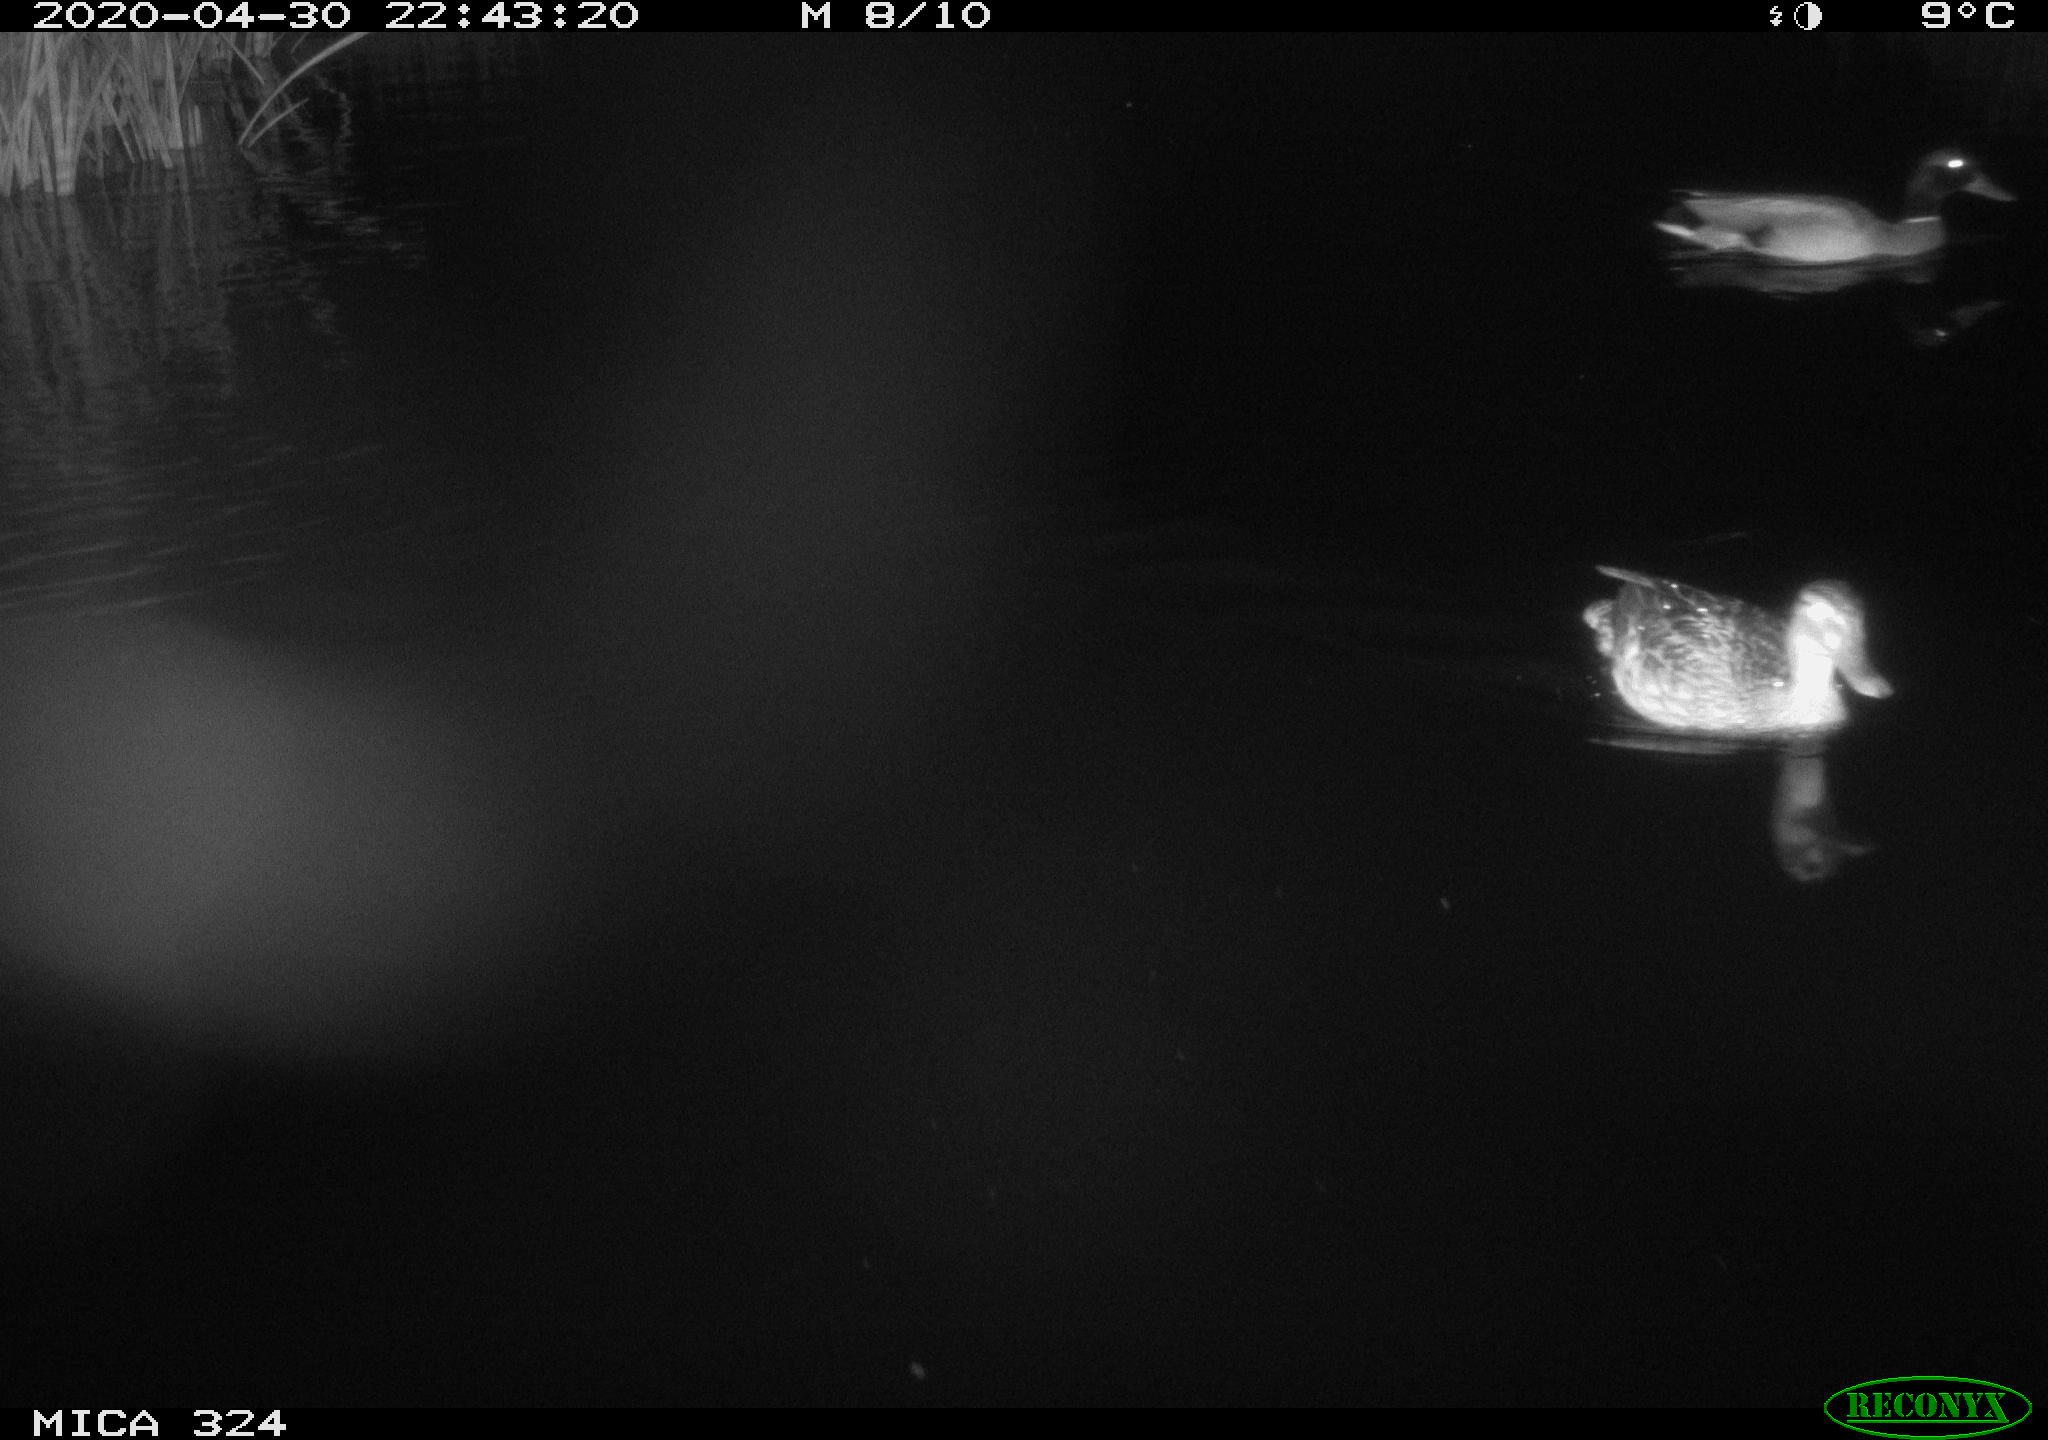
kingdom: Animalia
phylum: Chordata
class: Aves
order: Anseriformes
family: Anatidae
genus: Anas
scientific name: Anas platyrhynchos
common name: Mallard
